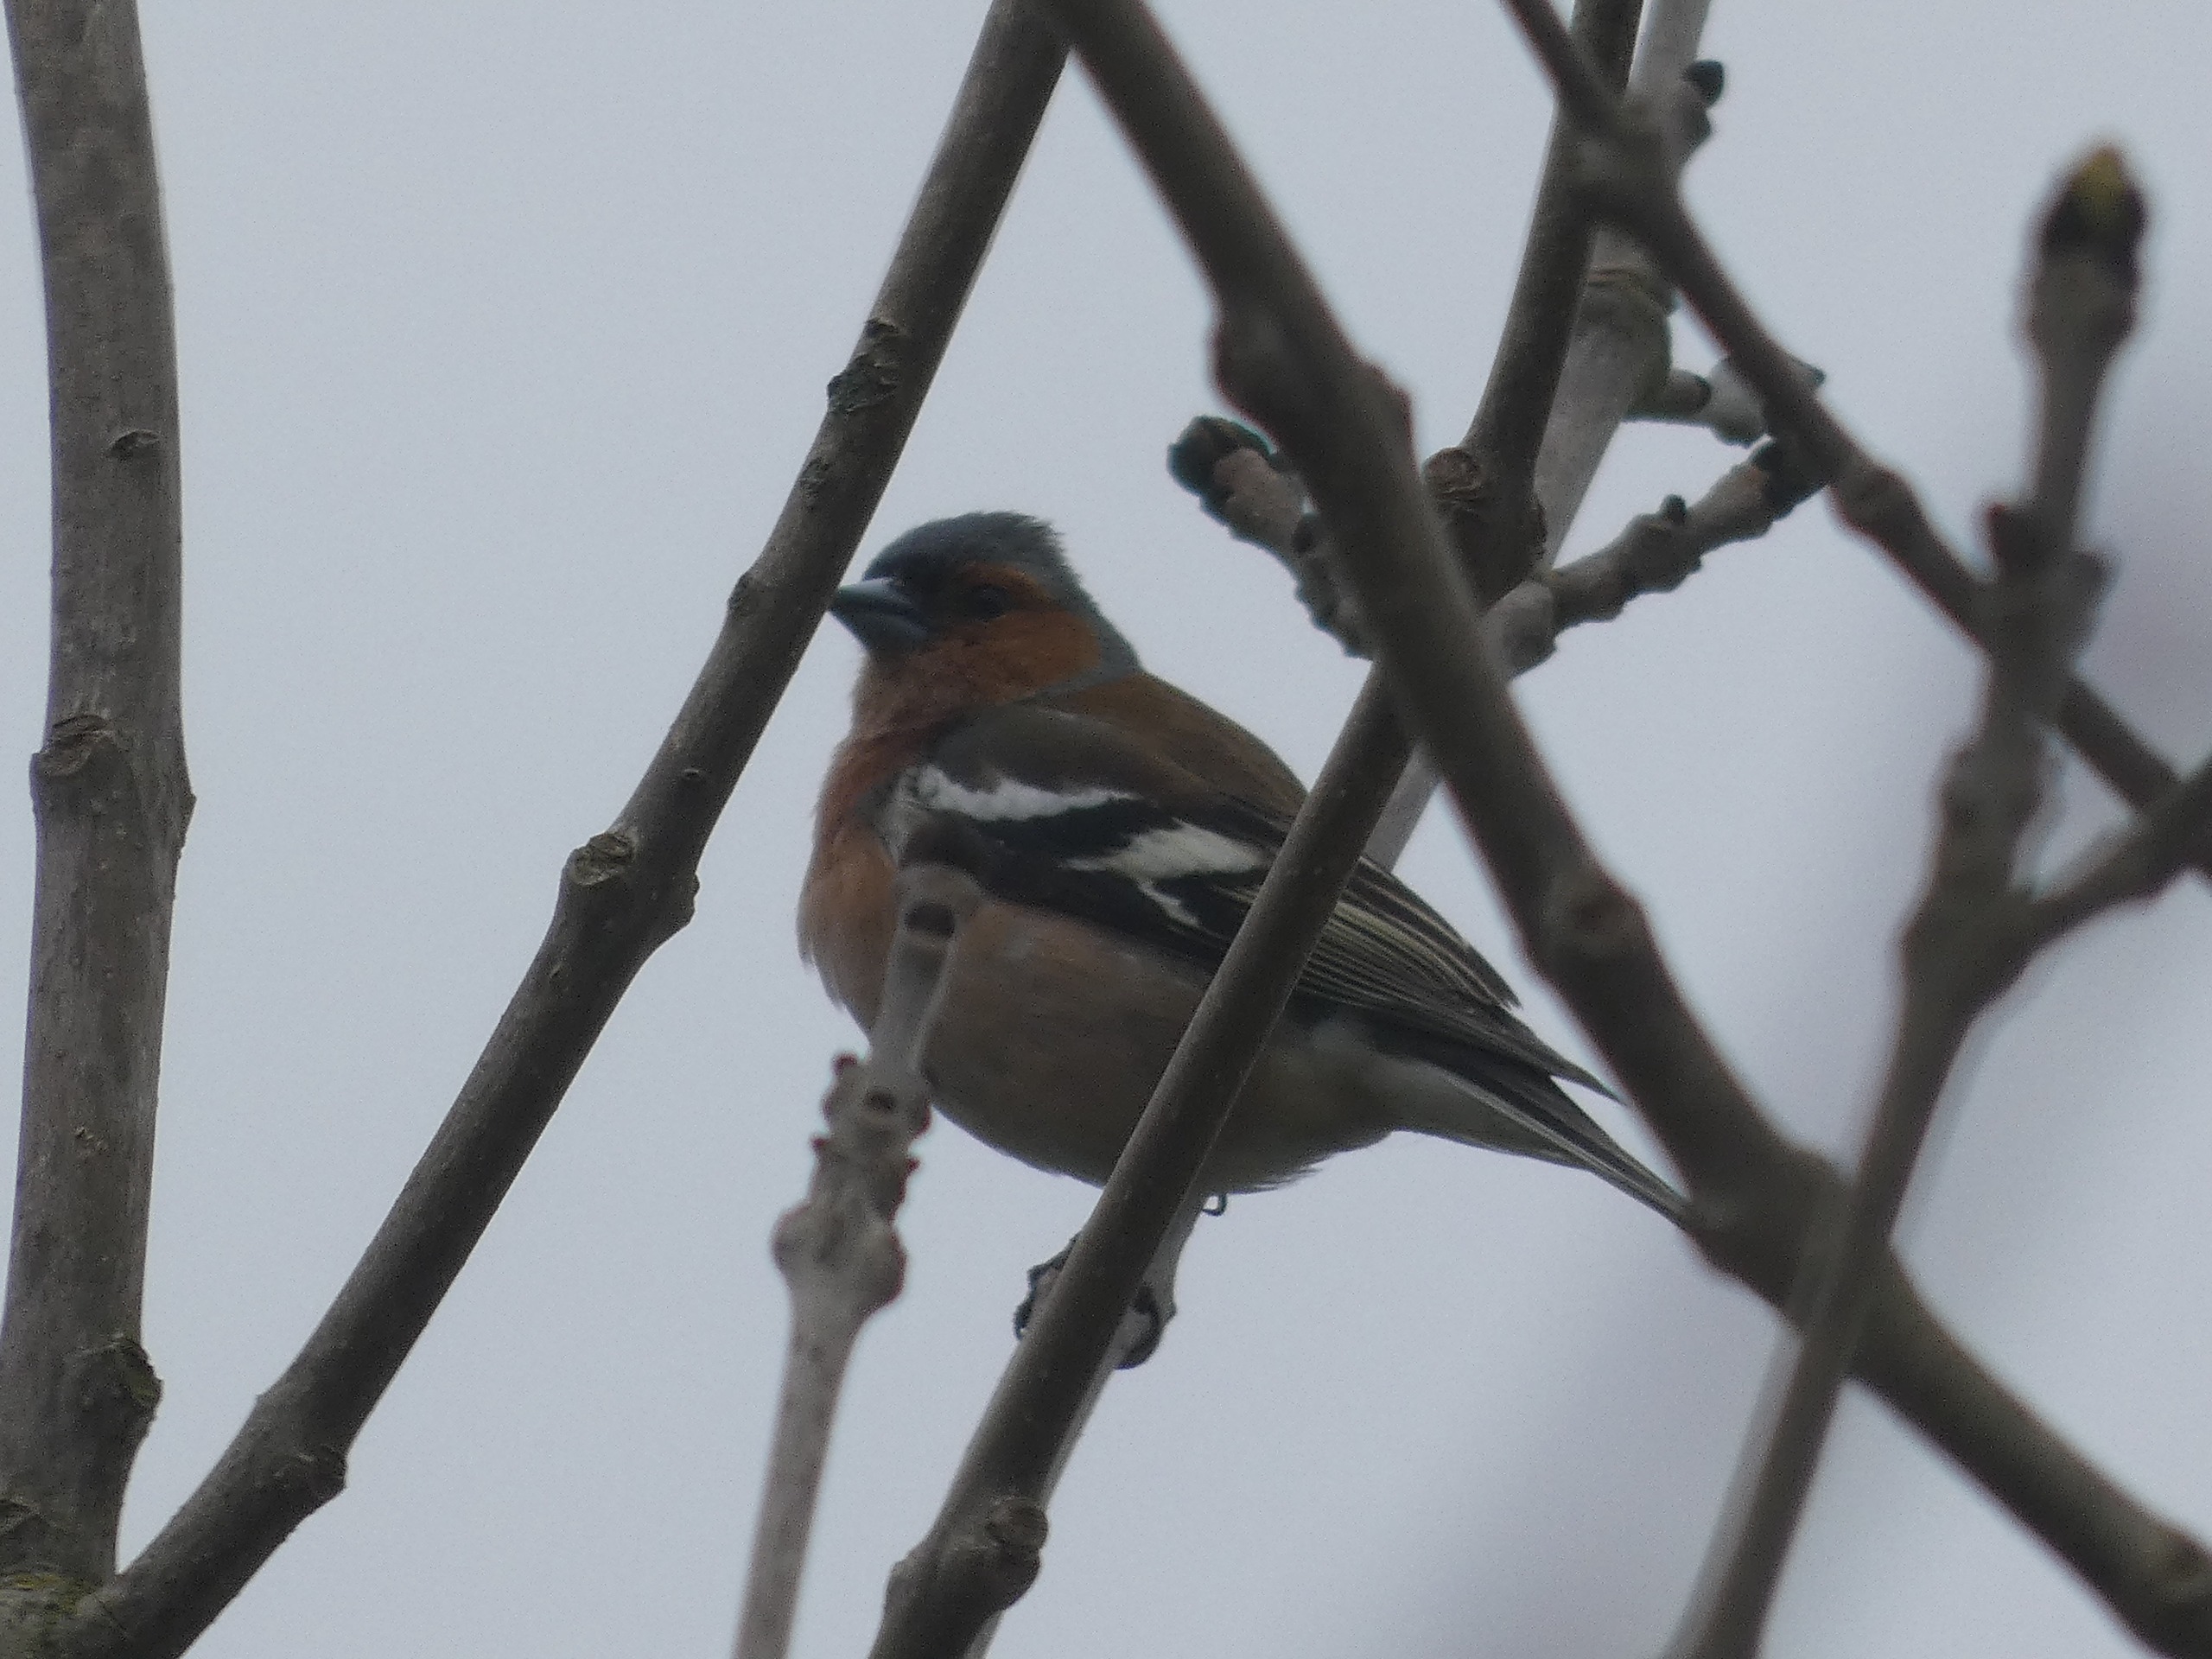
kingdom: Animalia
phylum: Chordata
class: Aves
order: Passeriformes
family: Fringillidae
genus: Fringilla
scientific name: Fringilla coelebs
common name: Bogfinke
